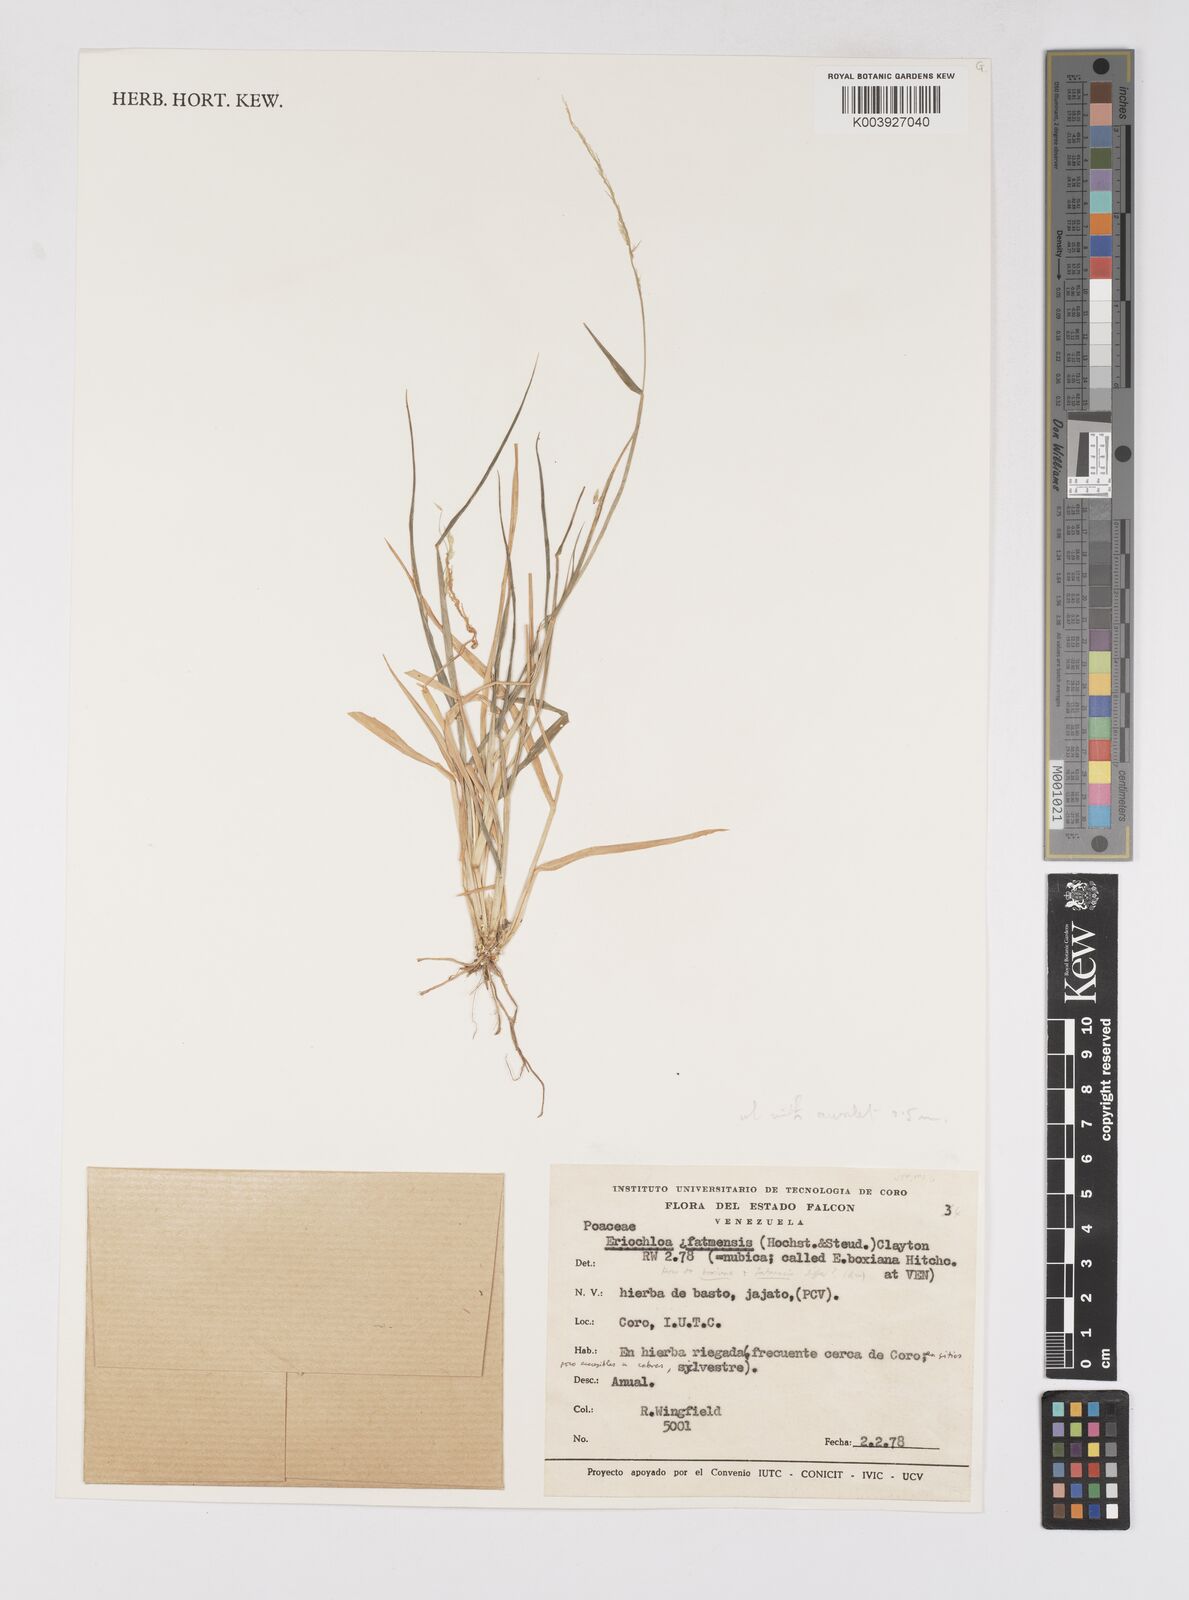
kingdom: Plantae
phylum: Tracheophyta
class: Liliopsida
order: Poales
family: Poaceae
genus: Eriochloa
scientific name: Eriochloa punctata
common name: Louisiana cupgrass
